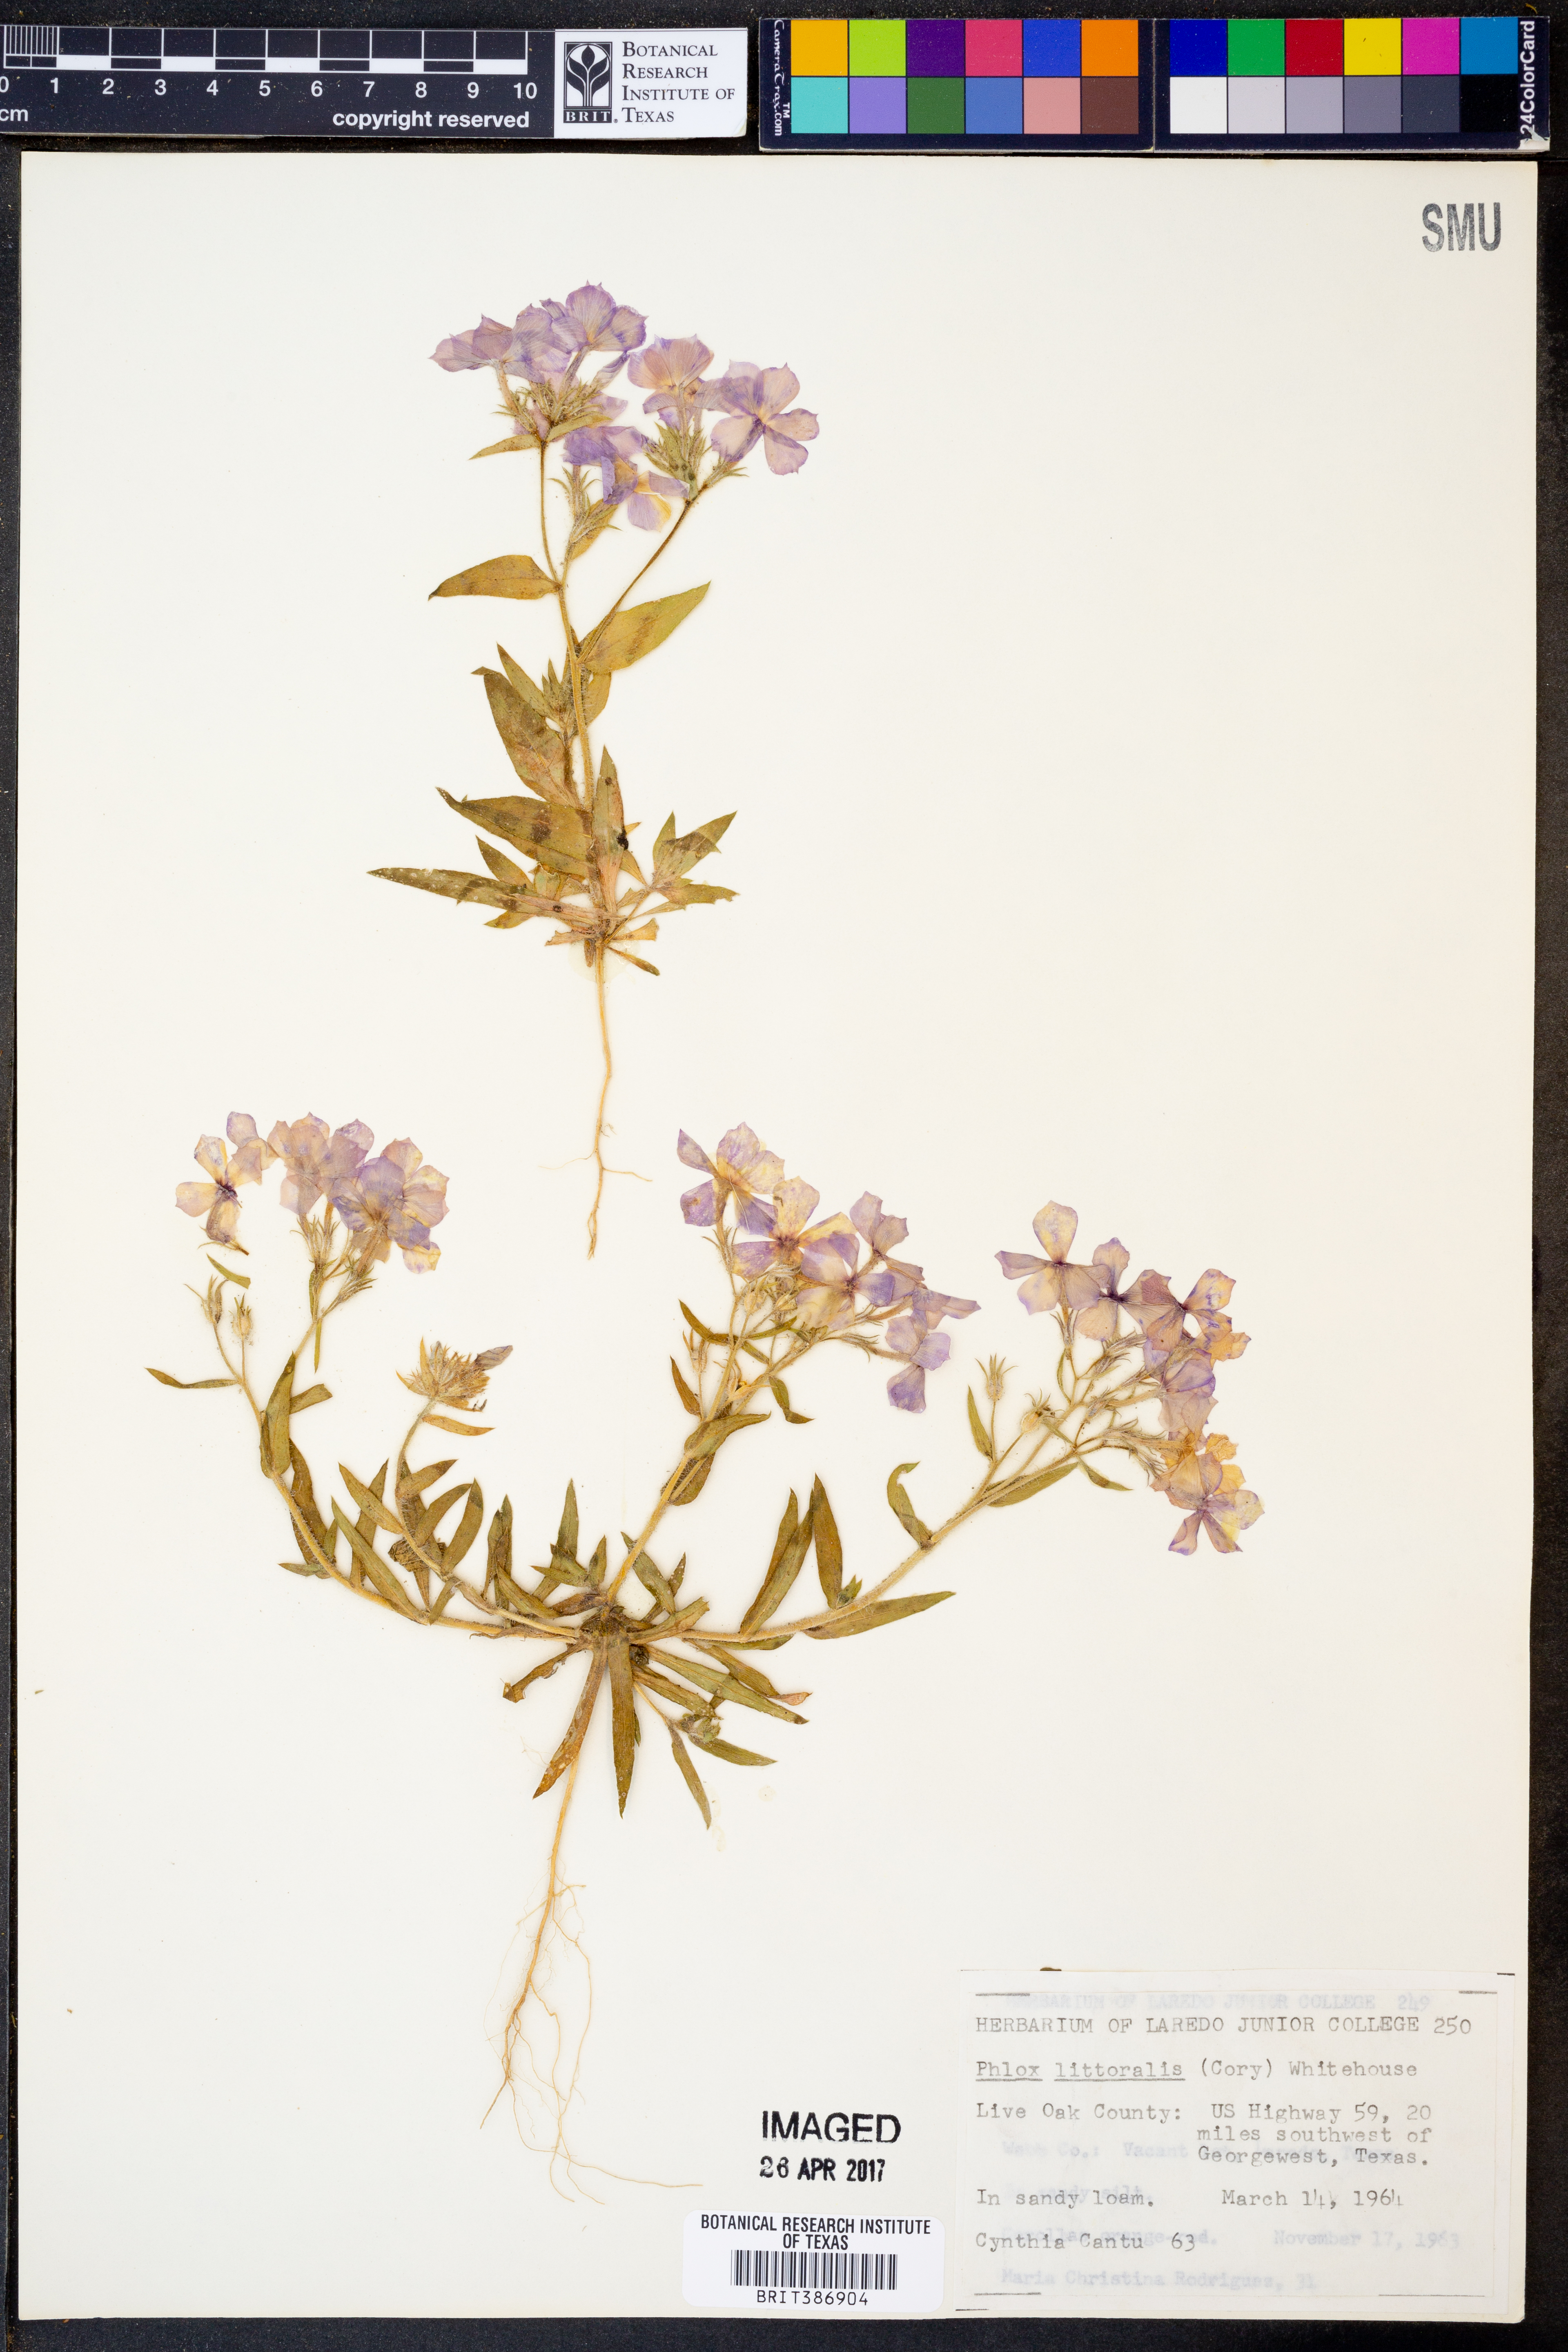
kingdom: Plantae
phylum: Tracheophyta
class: Magnoliopsida
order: Ericales
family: Polemoniaceae
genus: Phlox
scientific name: Phlox glabriflora
